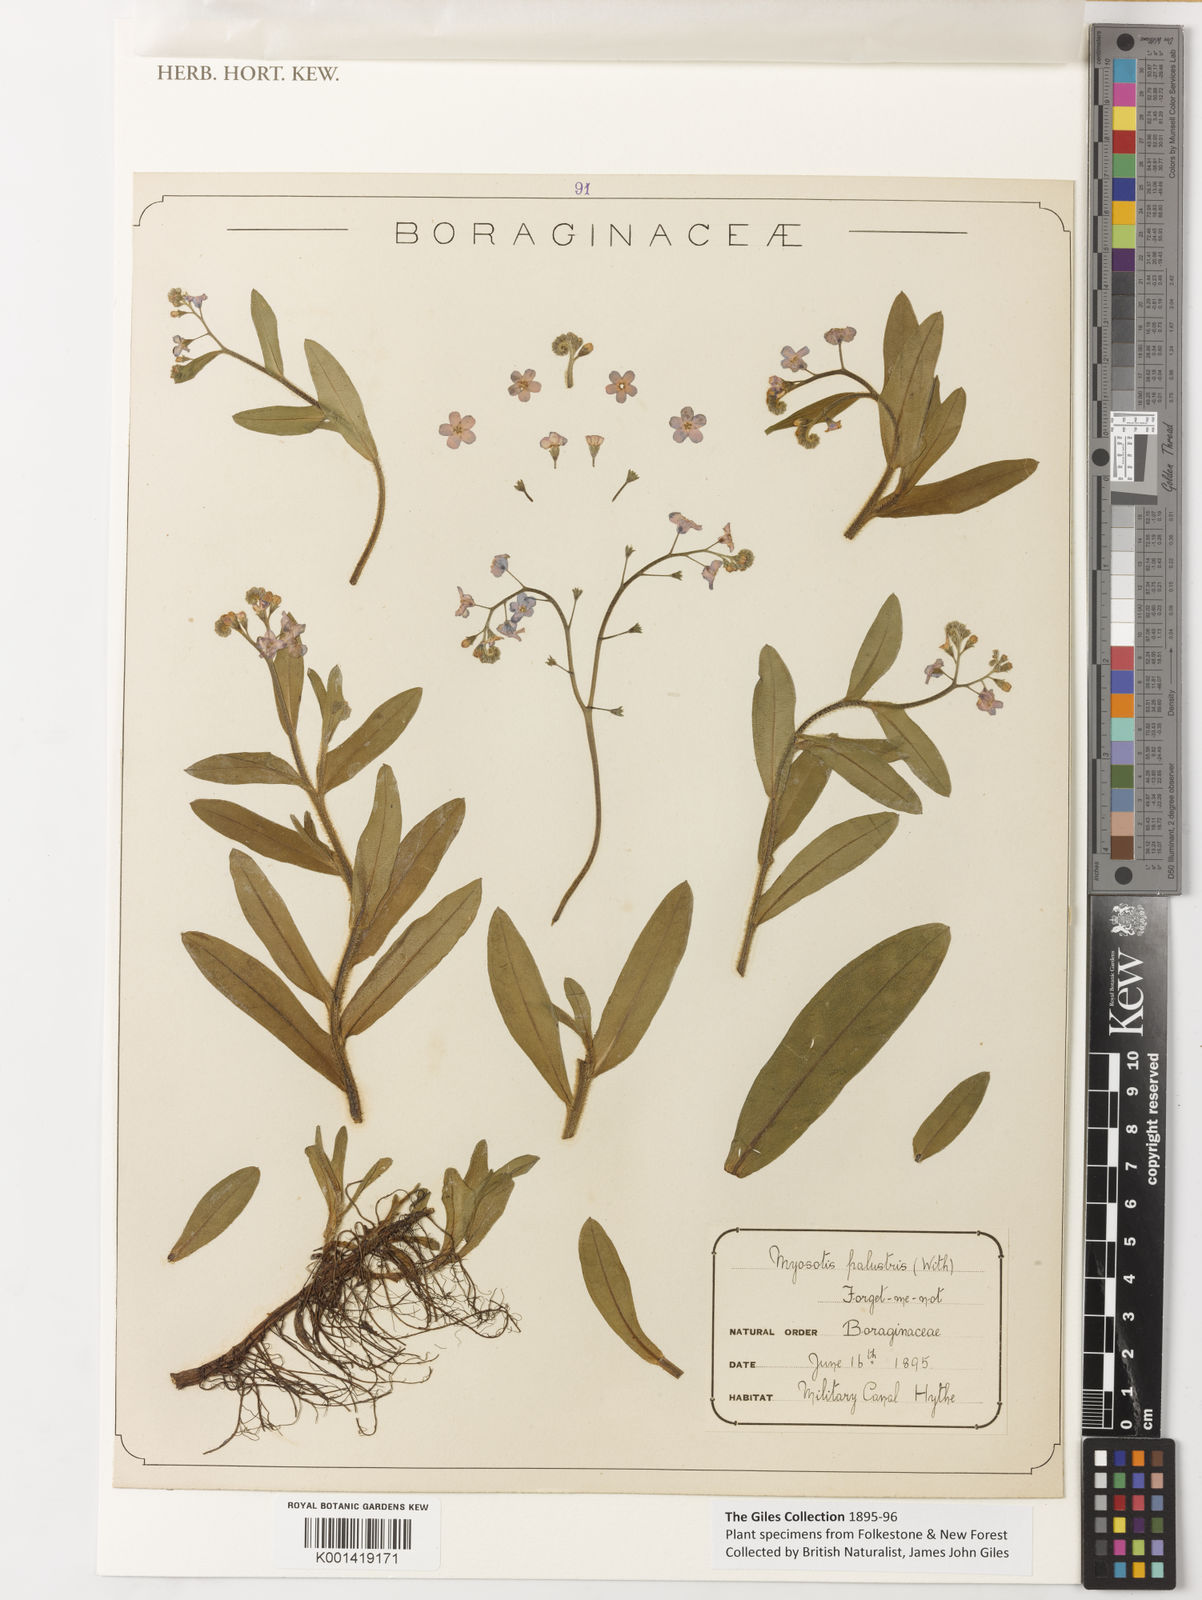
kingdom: Plantae
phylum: Tracheophyta
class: Magnoliopsida
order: Boraginales
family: Boraginaceae
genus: Myosotis
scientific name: Myosotis
